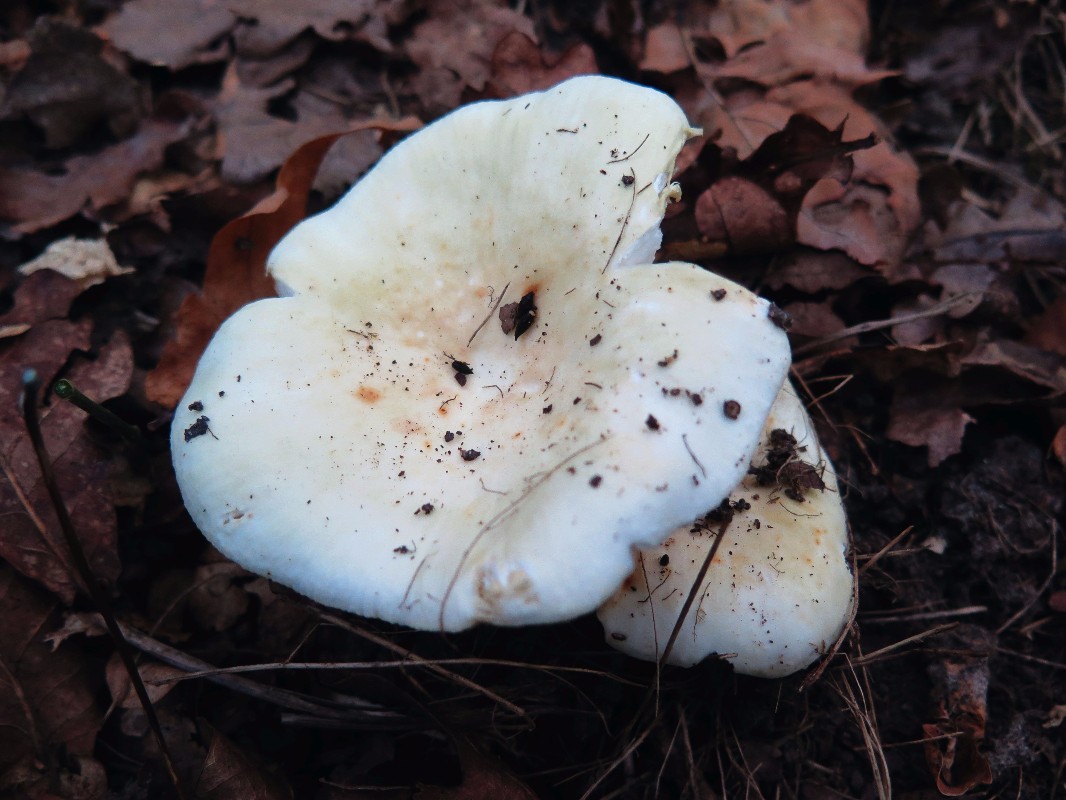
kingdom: Fungi
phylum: Basidiomycota
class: Agaricomycetes
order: Russulales
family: Russulaceae
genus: Russula
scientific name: Russula heterophylla
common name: gaffelbladet skørhat
